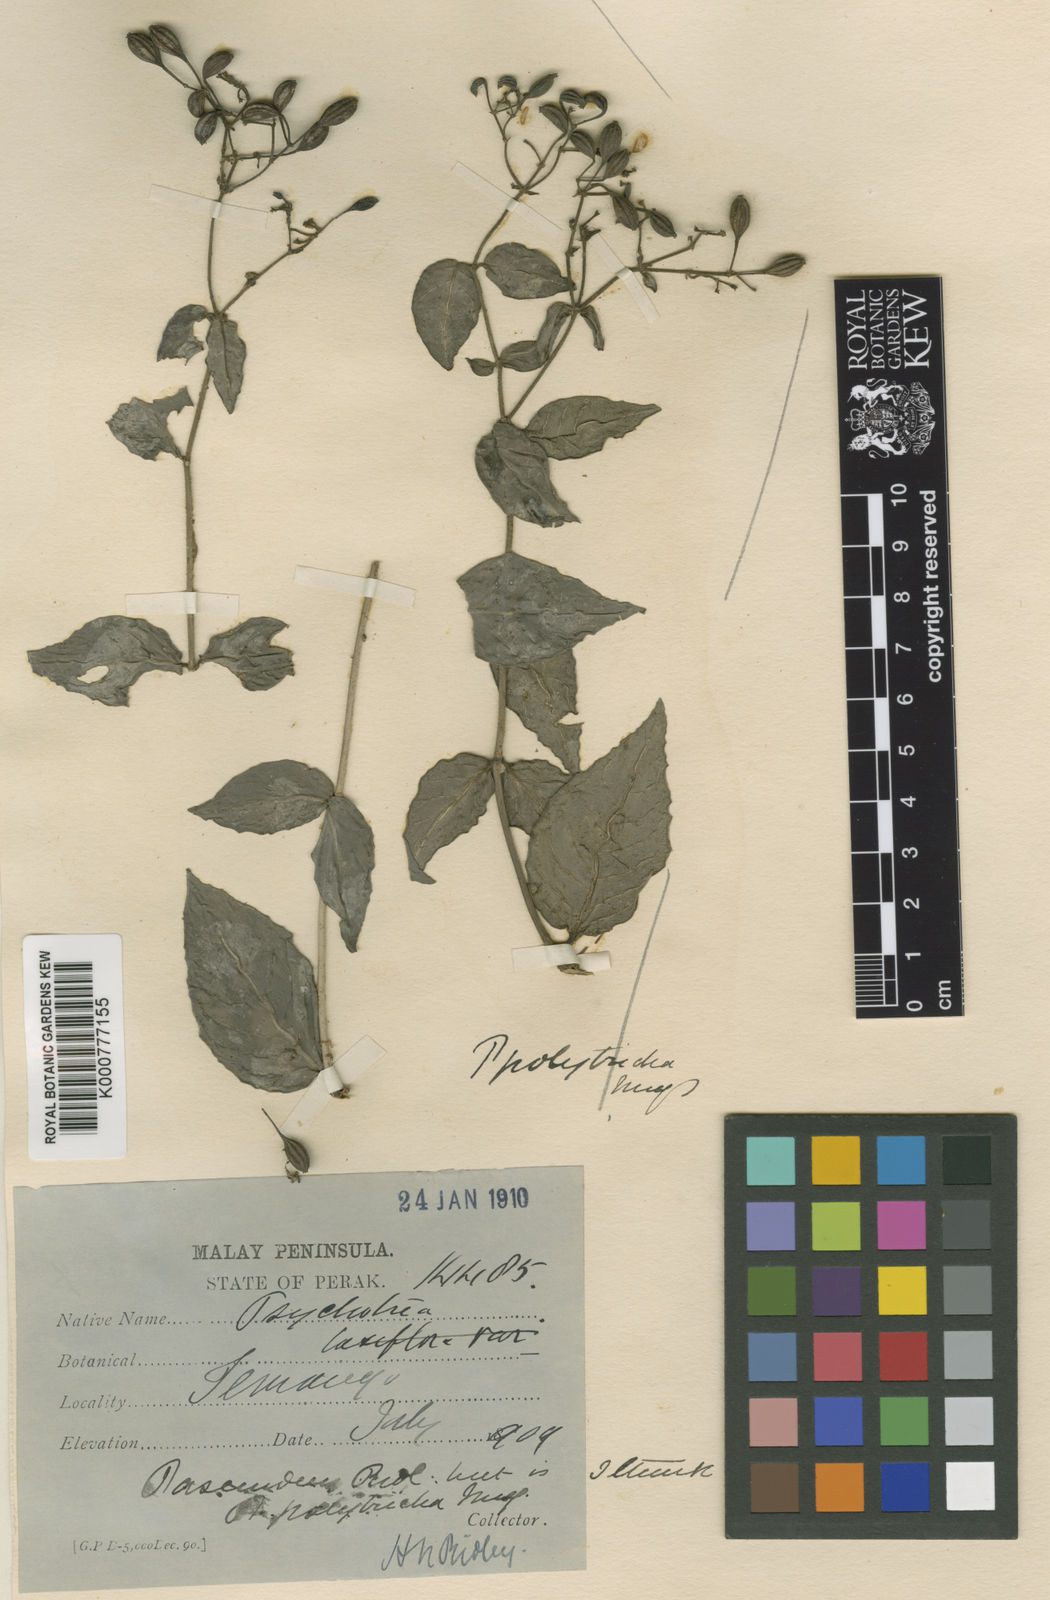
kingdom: Plantae
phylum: Tracheophyta
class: Magnoliopsida
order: Gentianales
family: Rubiaceae
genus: Psychotria
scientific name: Psychotria polytricha
